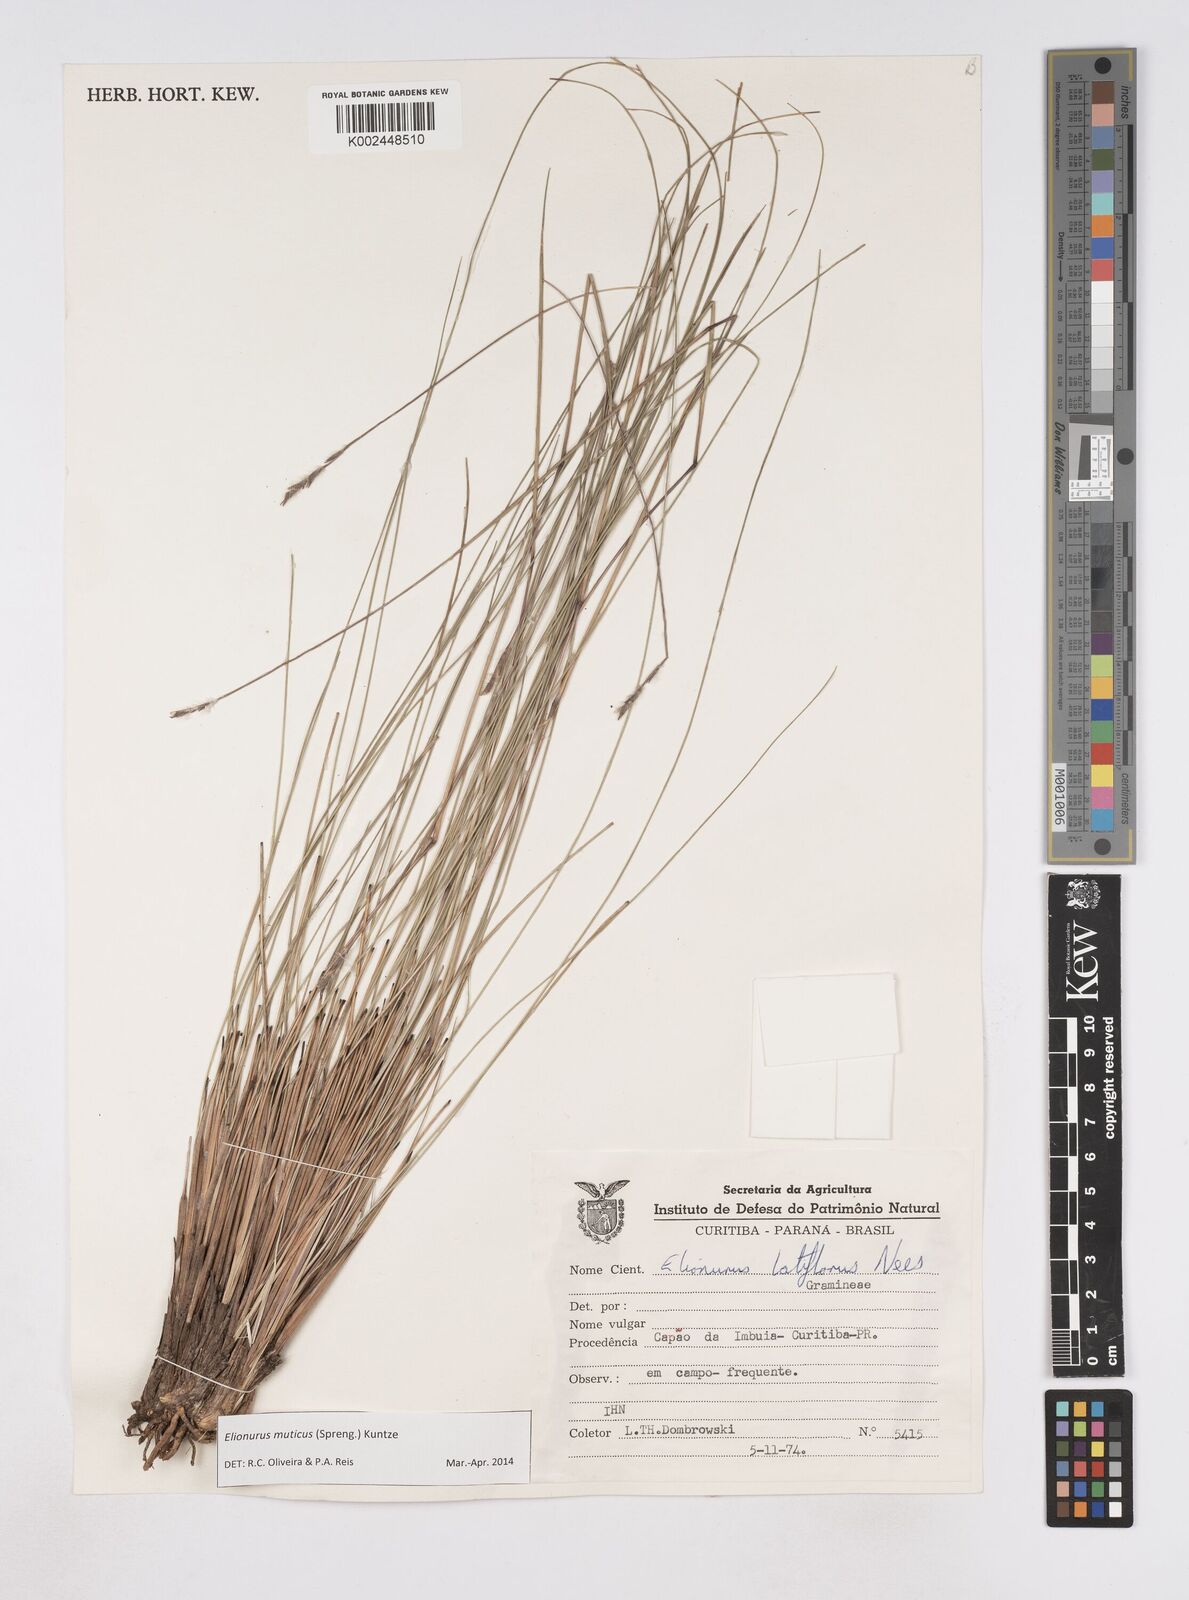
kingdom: Plantae
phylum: Tracheophyta
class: Liliopsida
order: Poales
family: Poaceae
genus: Elionurus
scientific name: Elionurus muticus
